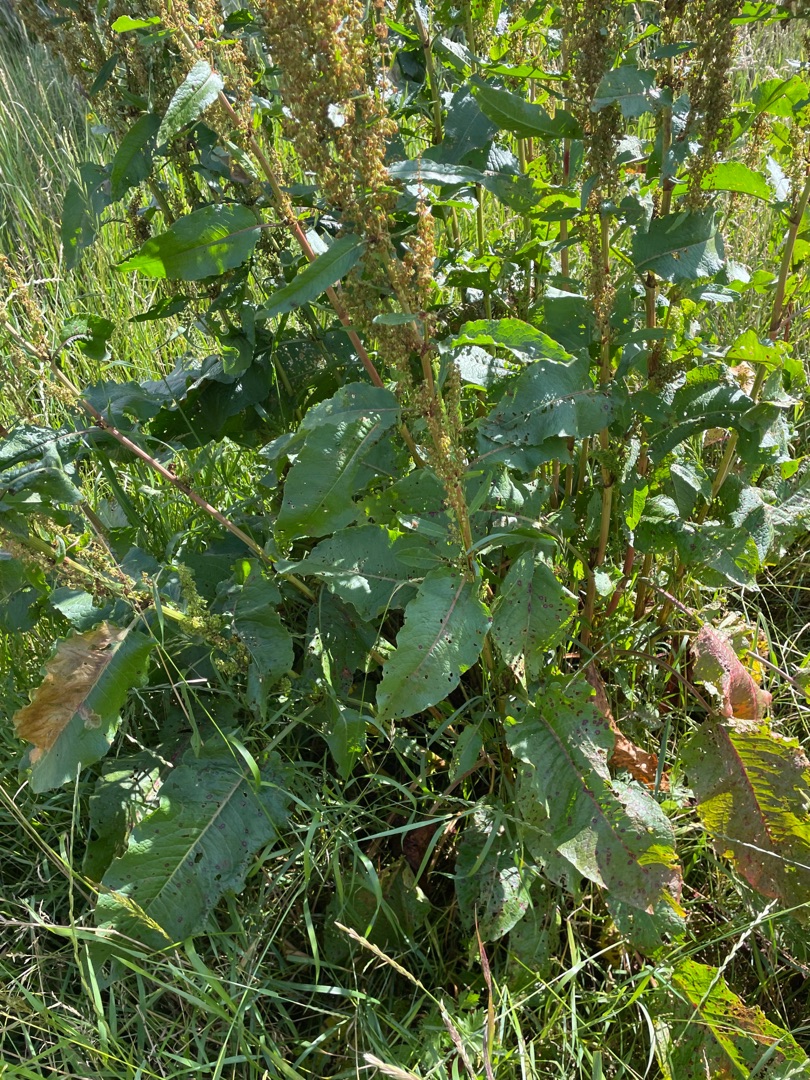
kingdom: Plantae
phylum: Tracheophyta
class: Magnoliopsida
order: Caryophyllales
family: Polygonaceae
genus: Rumex
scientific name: Rumex obtusifolius
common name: Butbladet skræppe
